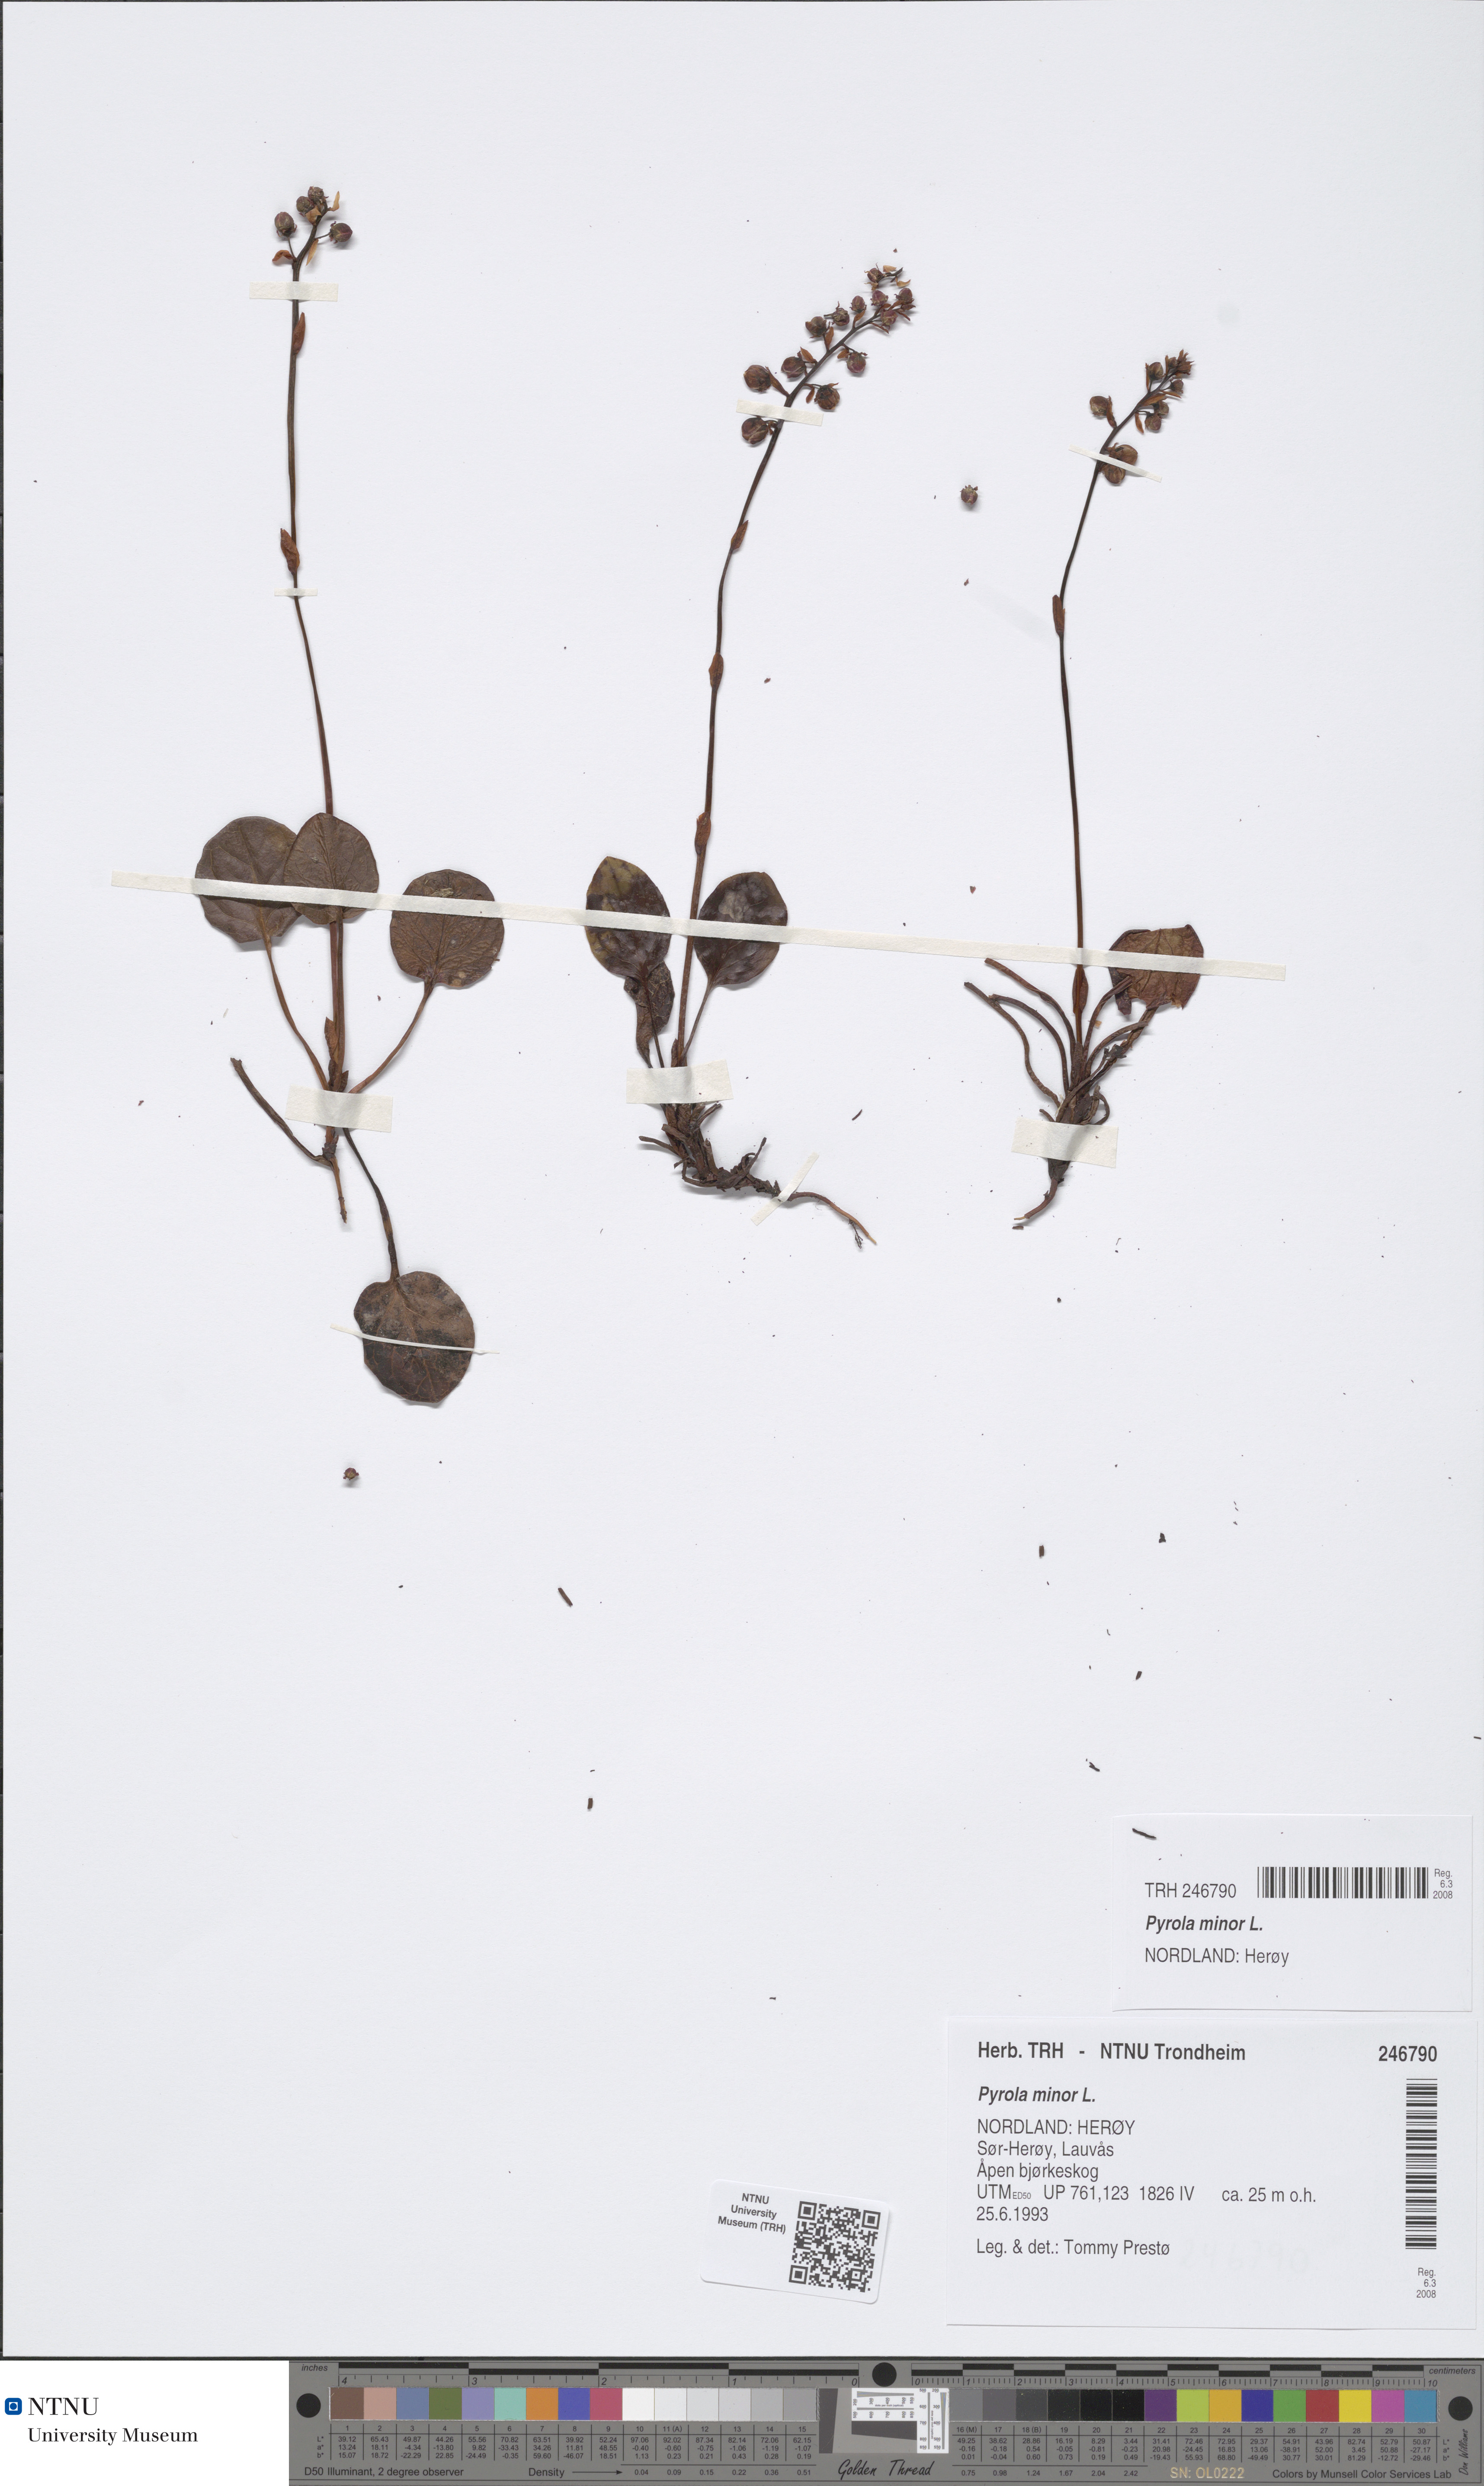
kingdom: Plantae
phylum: Tracheophyta
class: Magnoliopsida
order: Ericales
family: Ericaceae
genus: Pyrola
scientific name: Pyrola minor
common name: Common wintergreen
